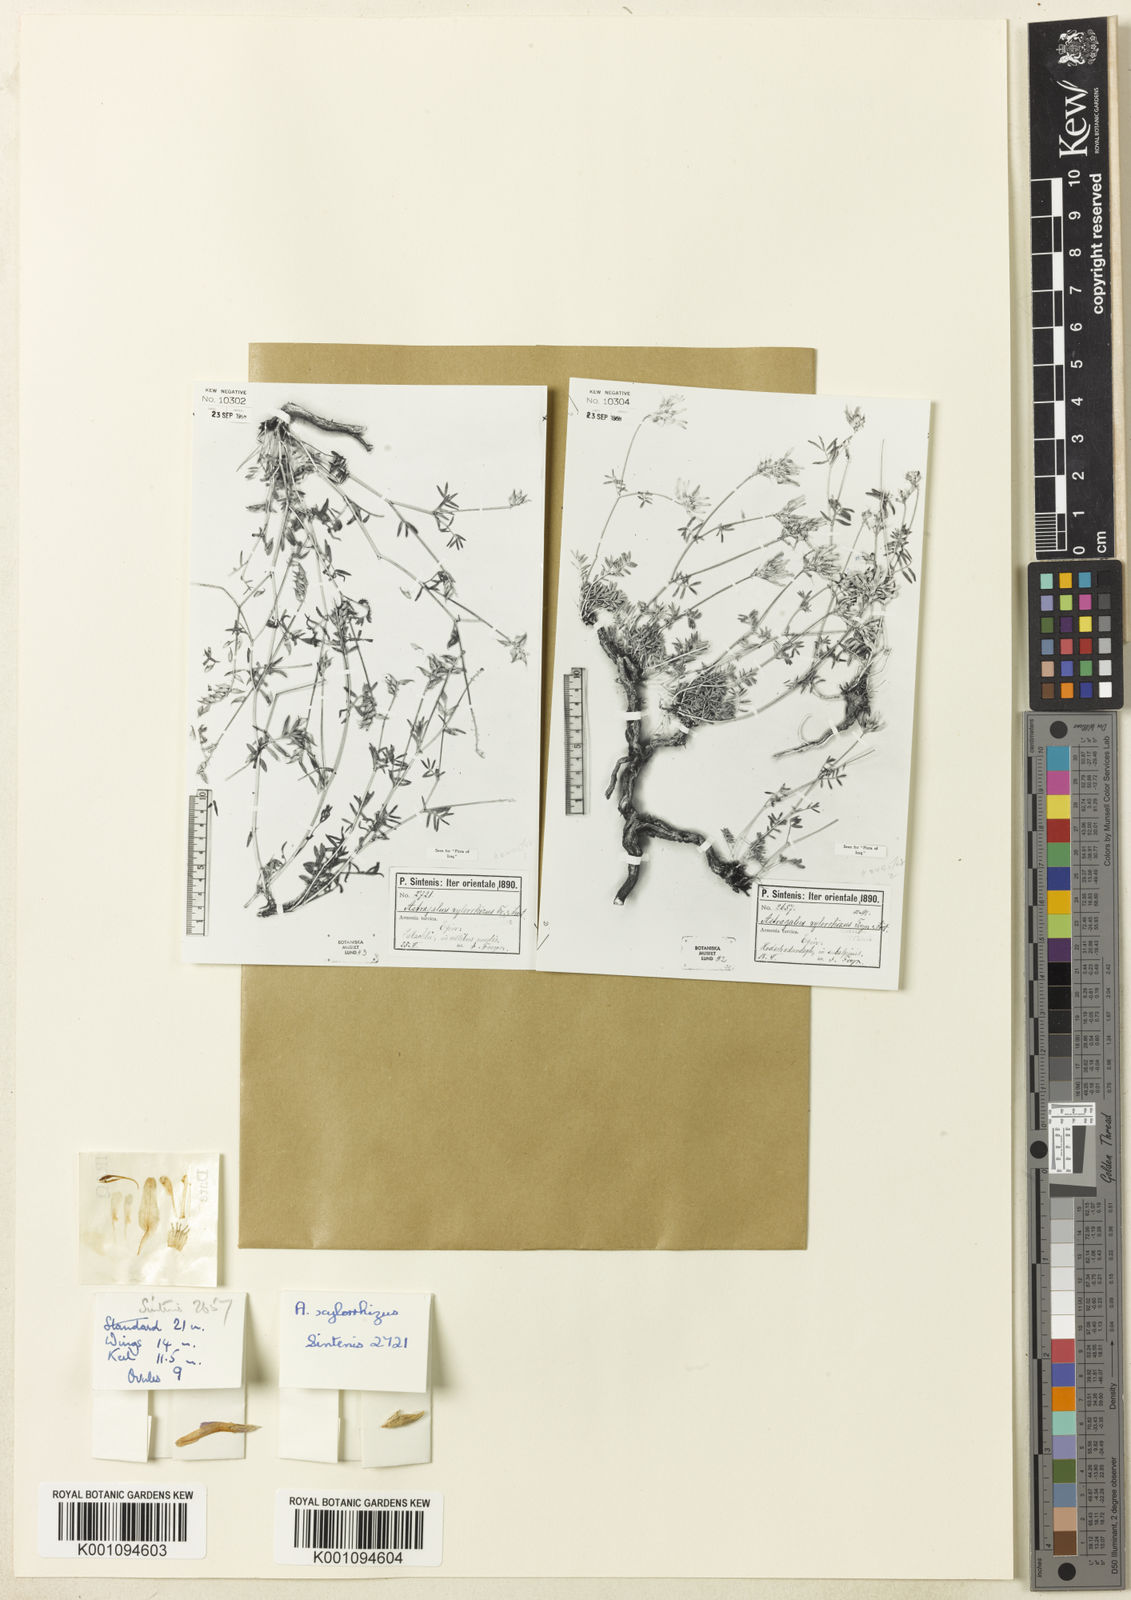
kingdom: Plantae
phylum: Tracheophyta
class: Magnoliopsida
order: Fabales
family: Fabaceae
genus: Astragalus
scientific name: Astragalus
